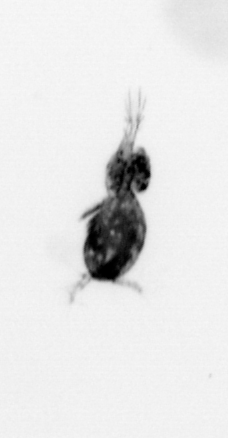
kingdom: Animalia
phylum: Arthropoda
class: Copepoda
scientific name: Copepoda
